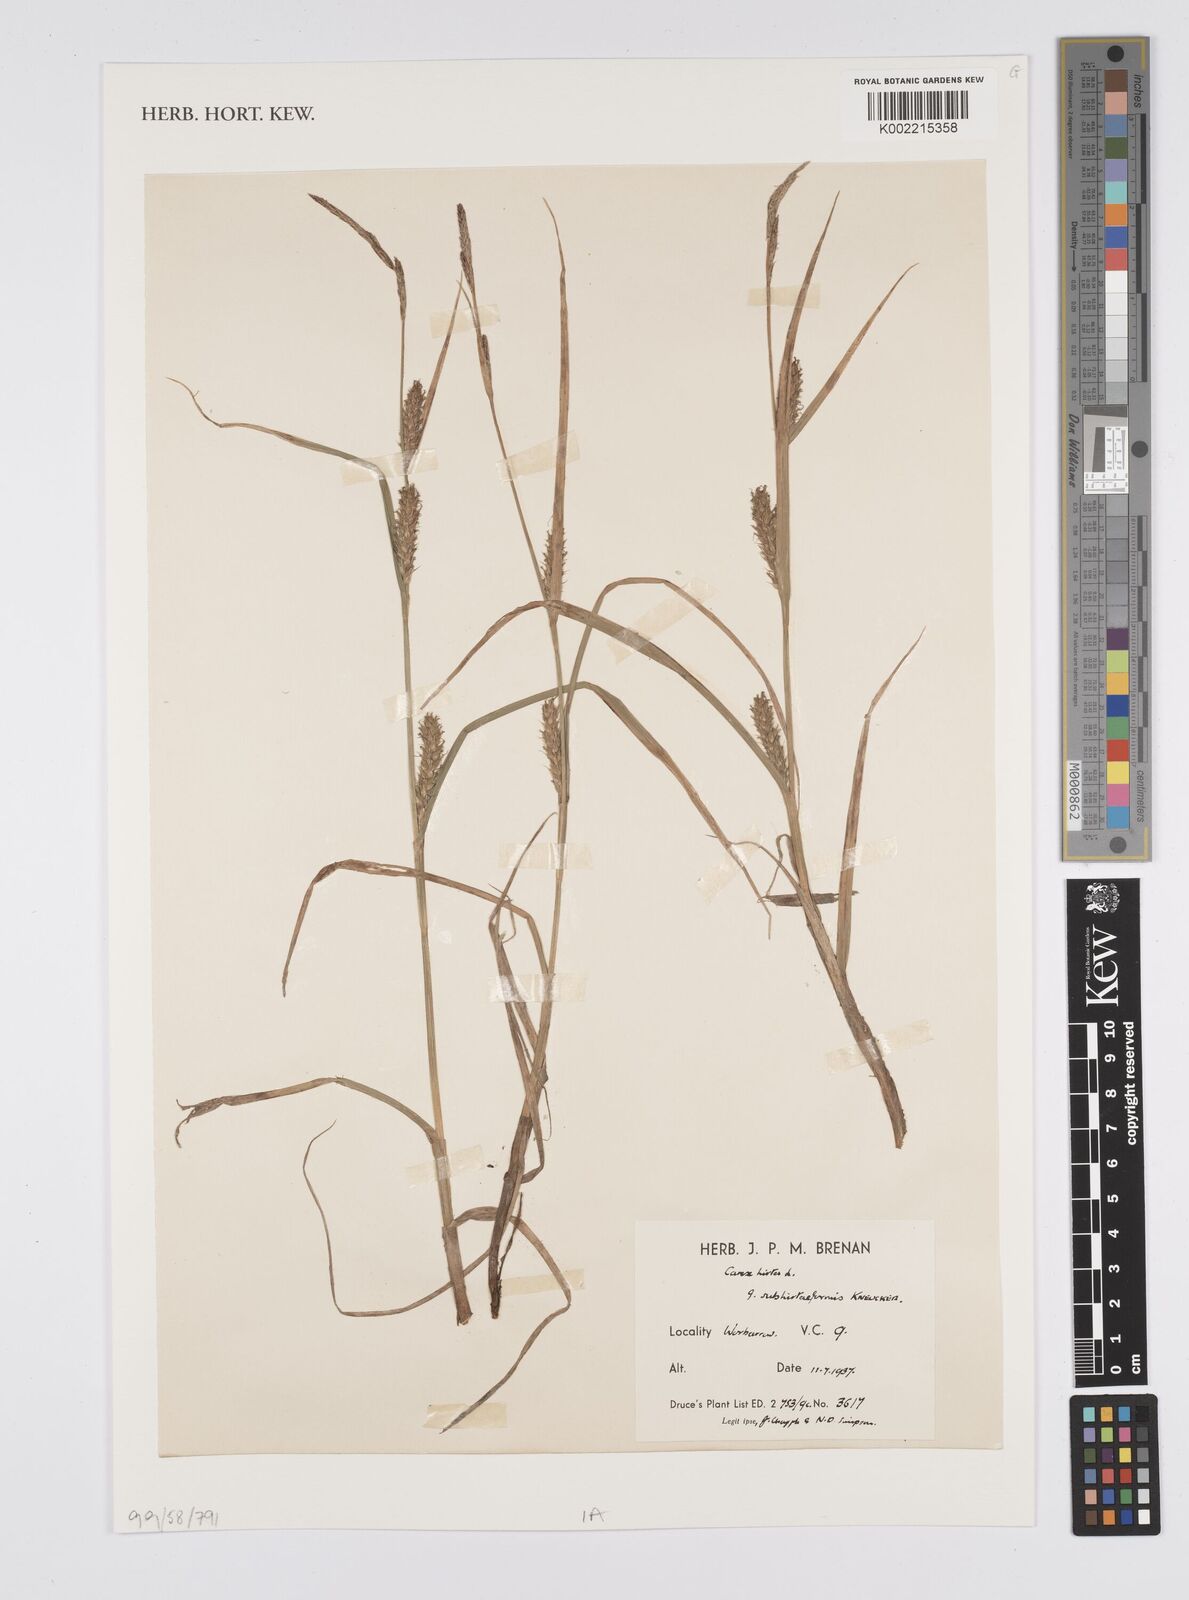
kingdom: Plantae
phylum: Tracheophyta
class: Liliopsida
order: Poales
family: Cyperaceae
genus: Carex
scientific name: Carex hirta
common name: Hairy sedge
